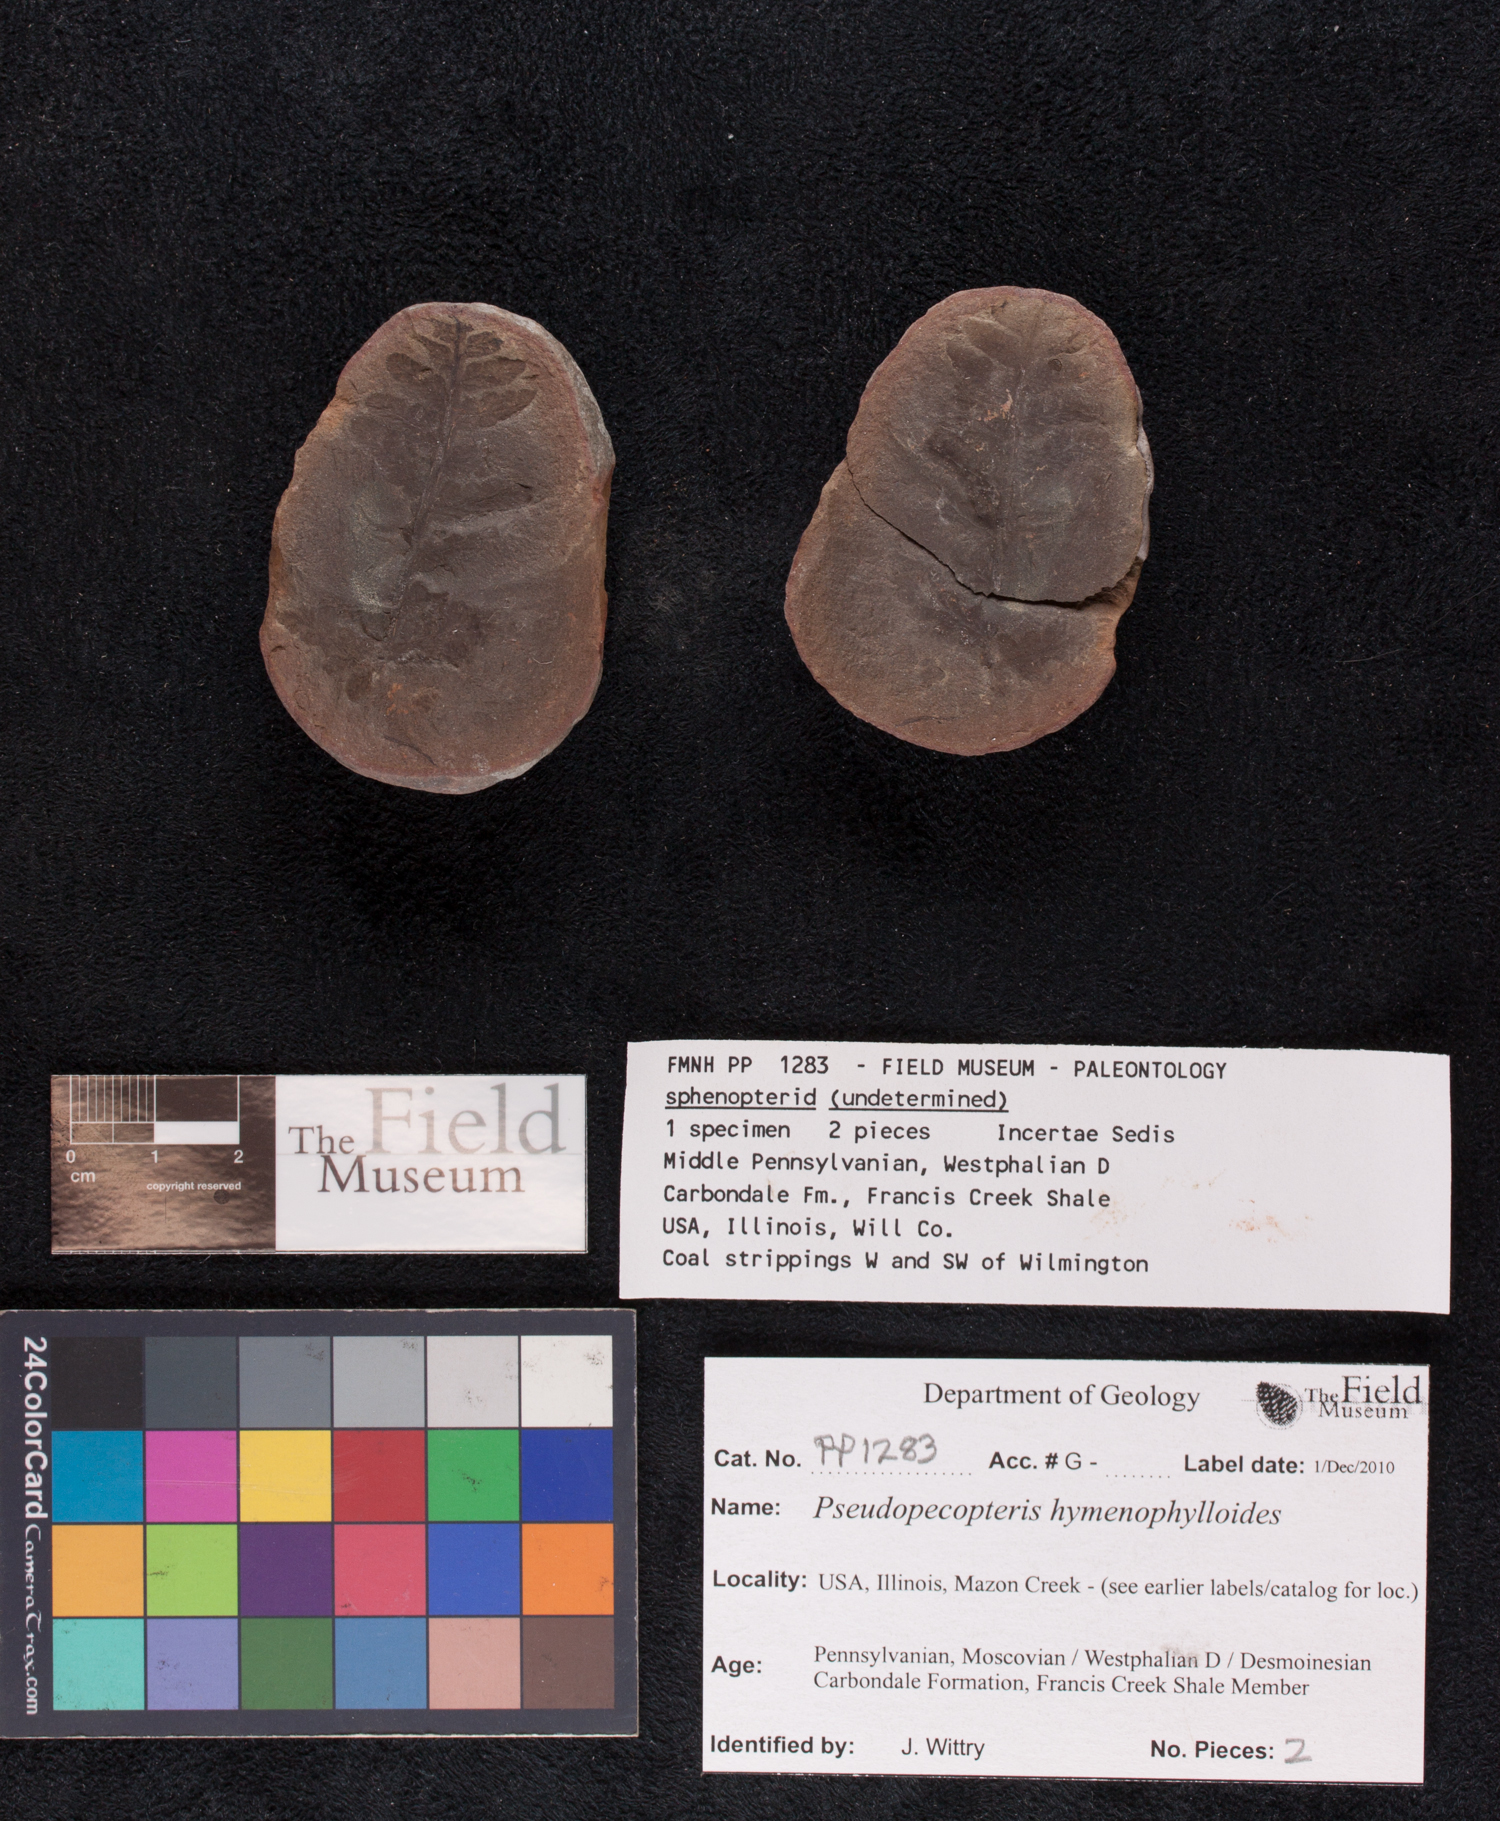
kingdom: Plantae
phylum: Tracheophyta
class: Polypodiopsida
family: Stauropteridaceae
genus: Crossotheca
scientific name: Crossotheca
